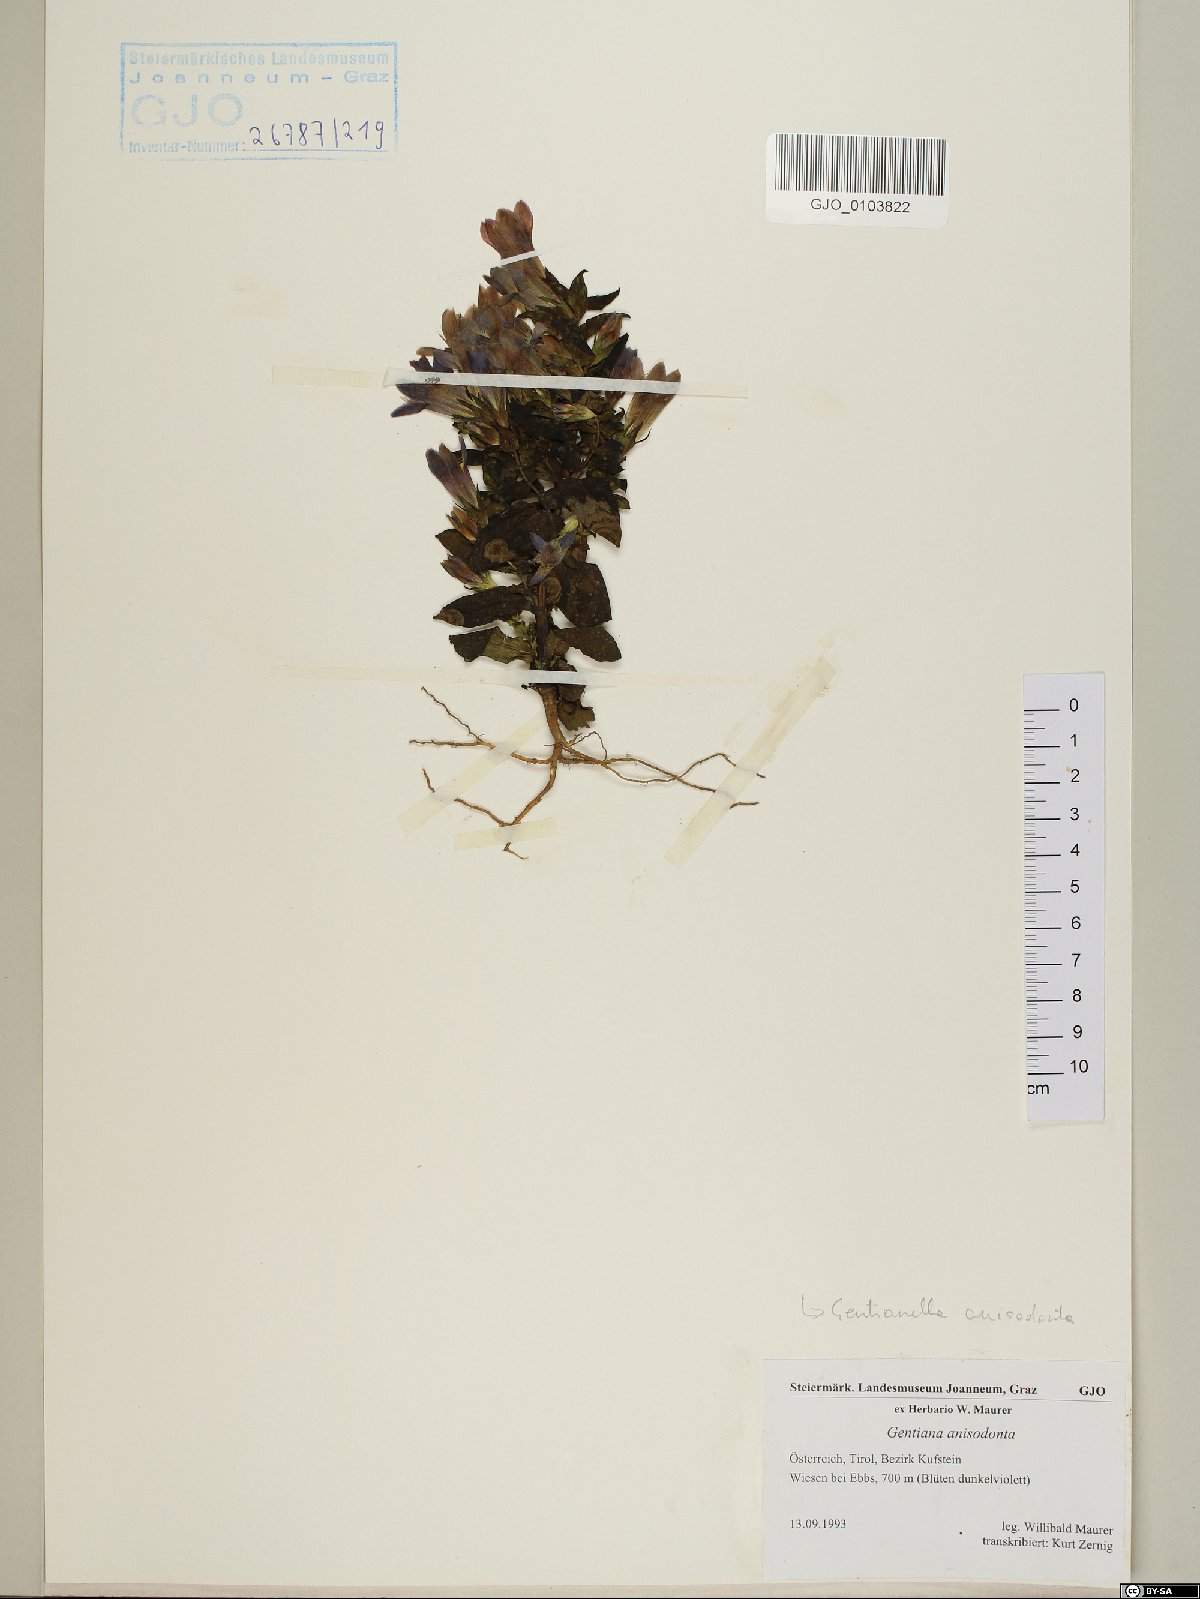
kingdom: Plantae
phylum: Tracheophyta
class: Magnoliopsida
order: Gentianales
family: Gentianaceae
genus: Gentianella
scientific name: Gentianella anisodonta
